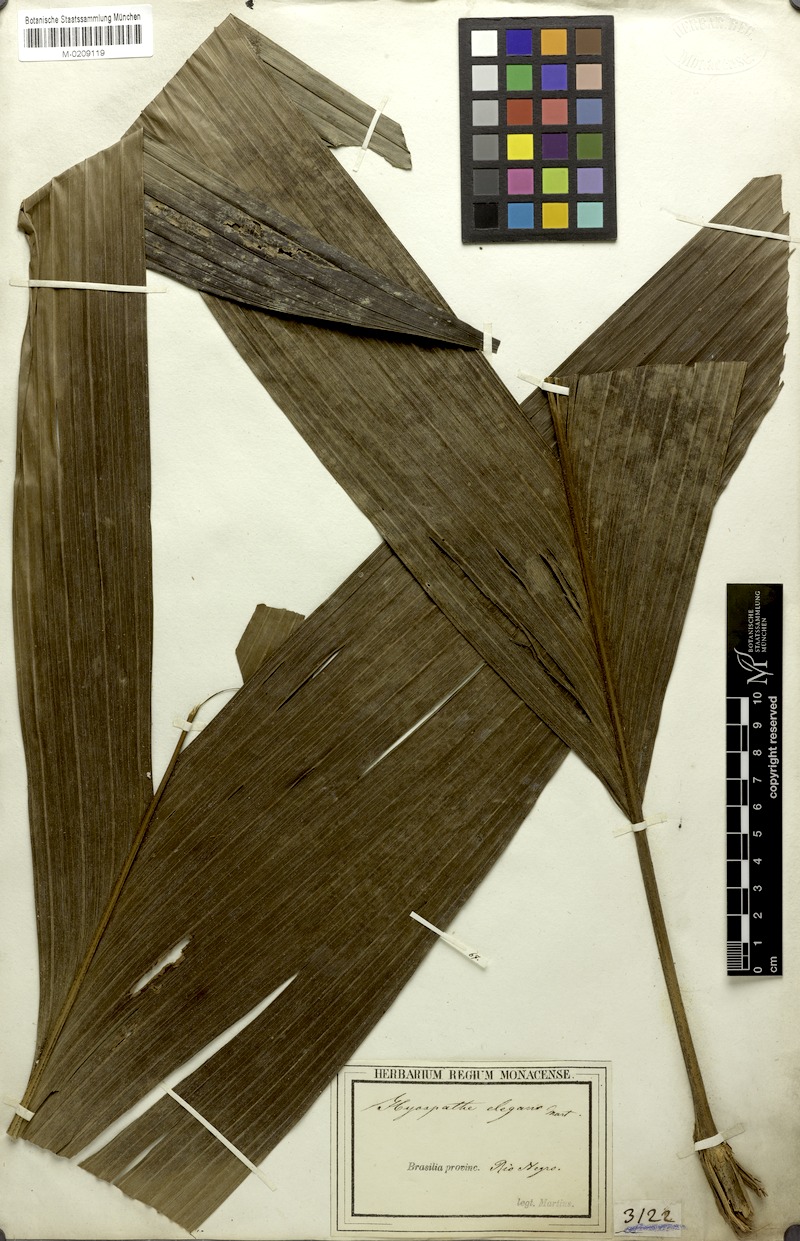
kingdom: Plantae
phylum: Tracheophyta
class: Liliopsida
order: Arecales
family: Arecaceae
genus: Hyospathe
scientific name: Hyospathe elegans
